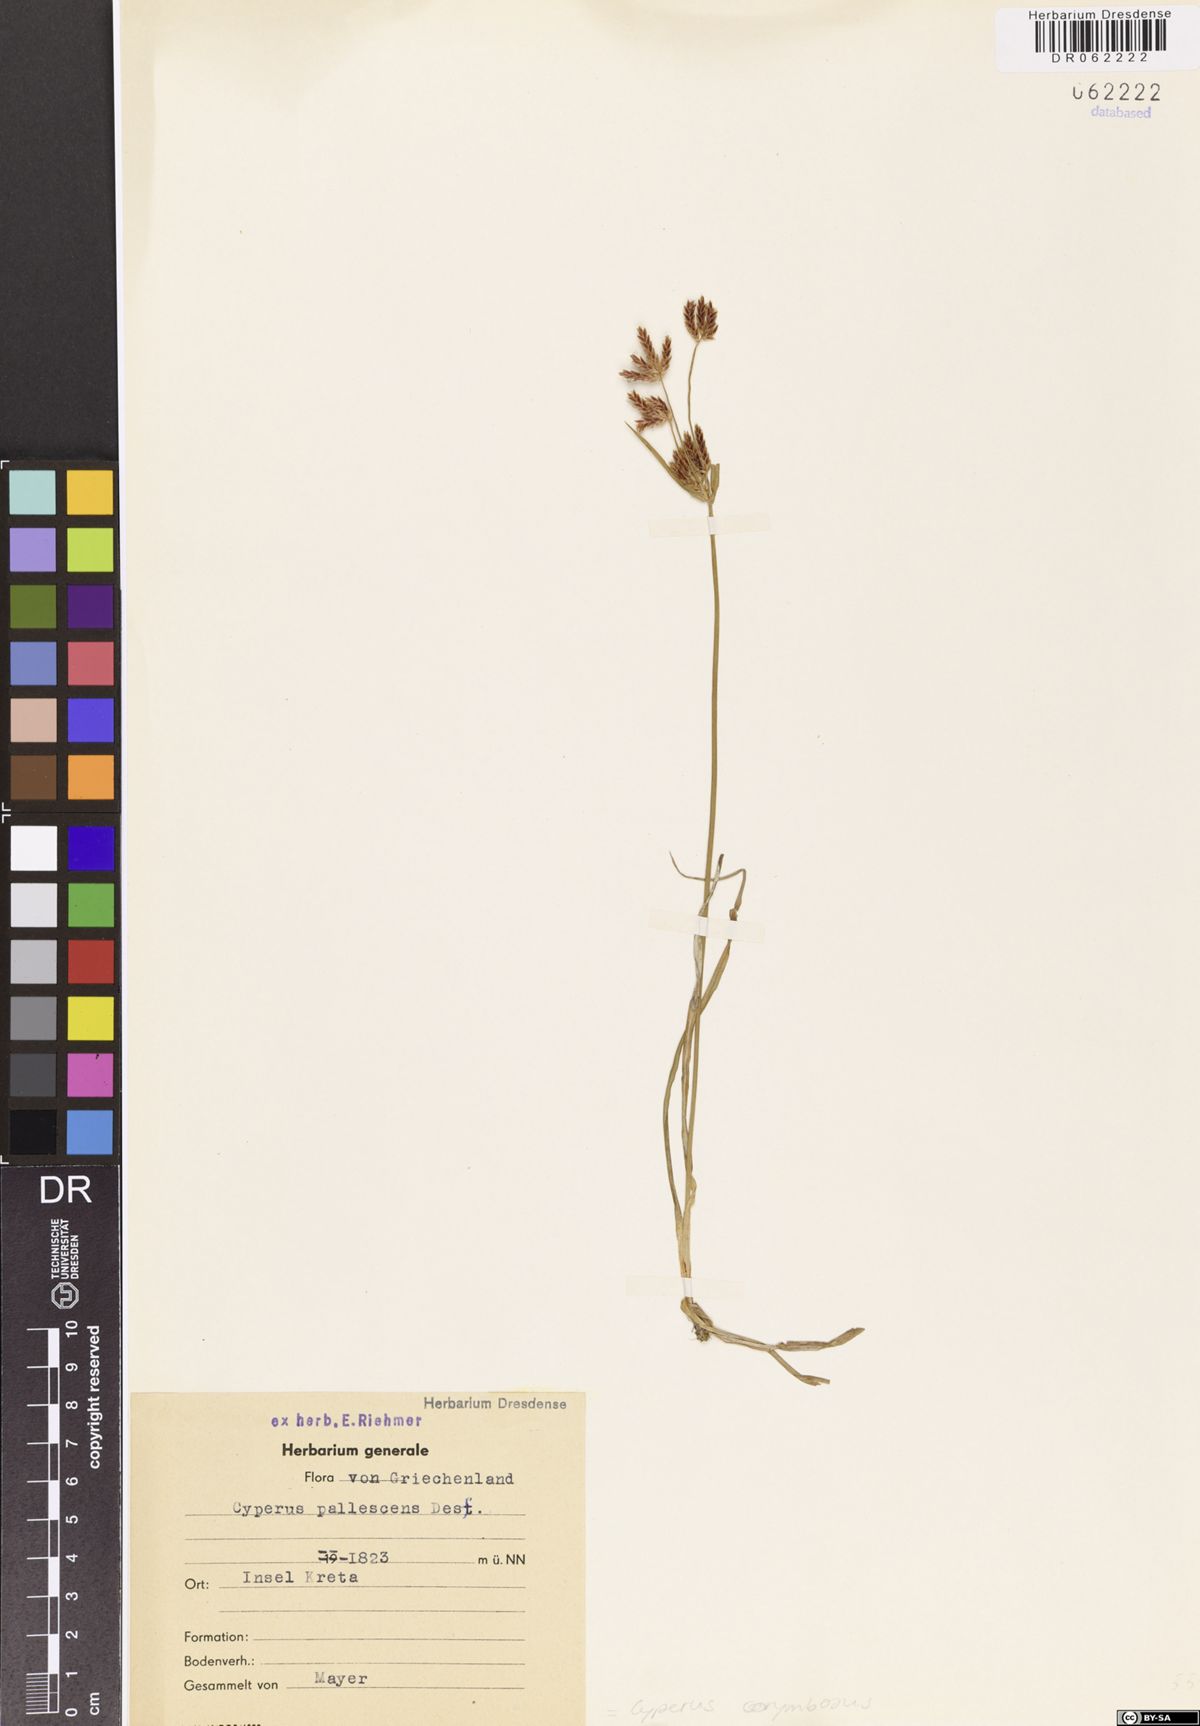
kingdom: Plantae
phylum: Tracheophyta
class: Liliopsida
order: Poales
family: Cyperaceae
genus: Cyperus
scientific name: Cyperus corymbosus
